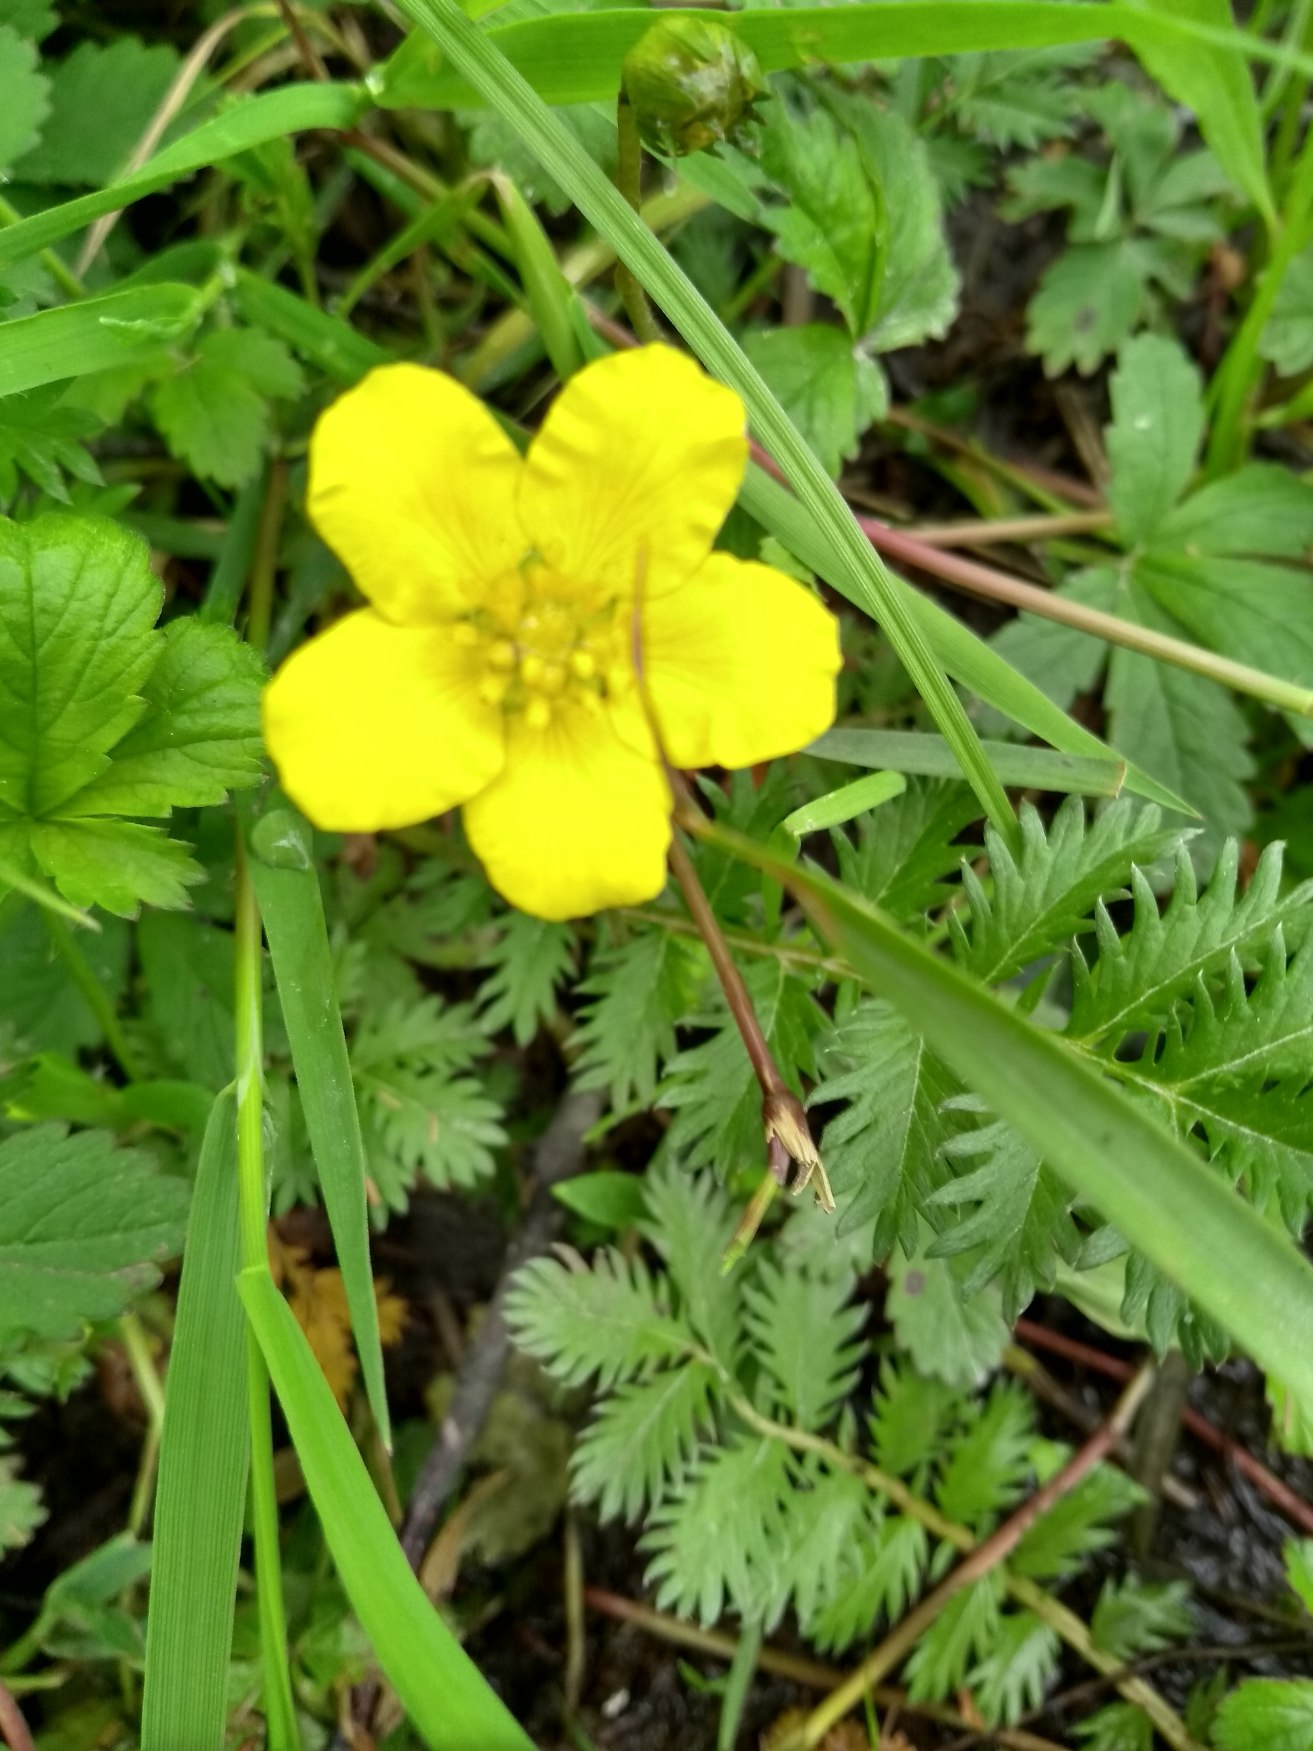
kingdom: Plantae
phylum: Tracheophyta
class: Magnoliopsida
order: Rosales
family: Rosaceae
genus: Argentina
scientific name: Argentina anserina
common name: Gåsepotentil
